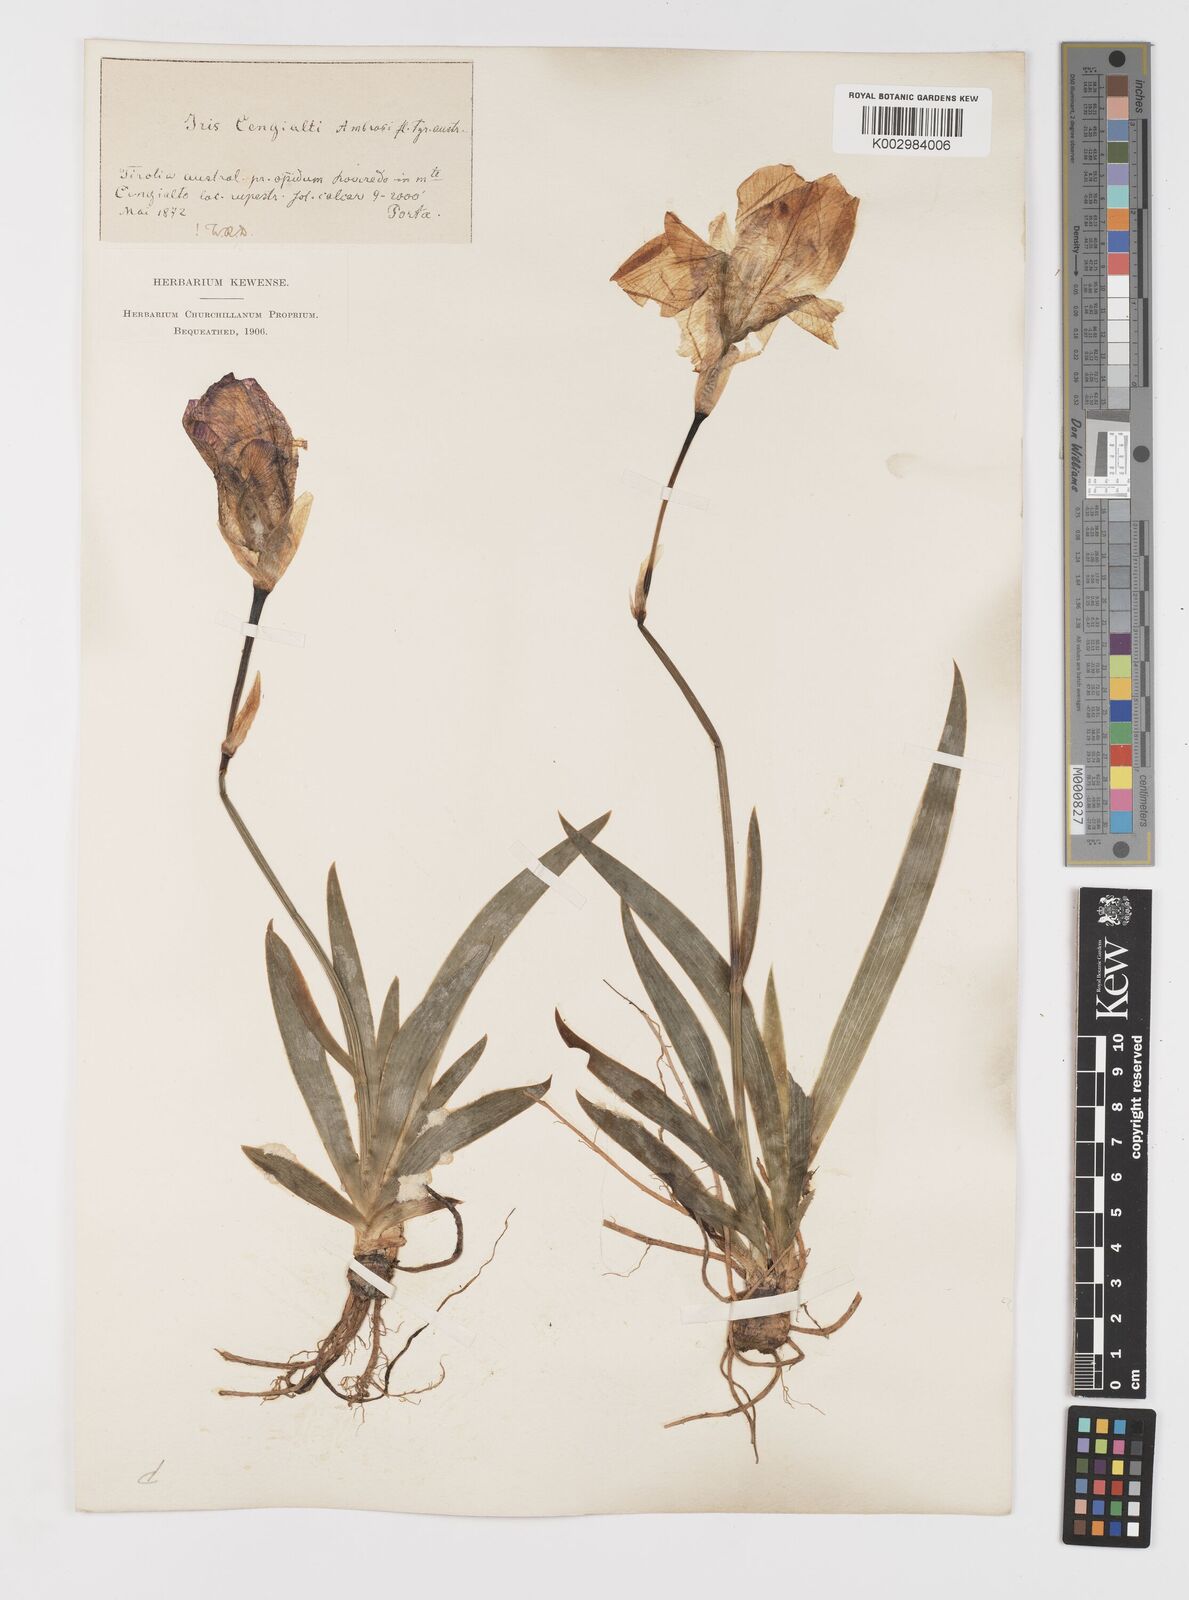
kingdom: Plantae
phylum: Tracheophyta
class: Liliopsida
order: Asparagales
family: Iridaceae
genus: Iris
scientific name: Iris pallida
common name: Sweet iris
